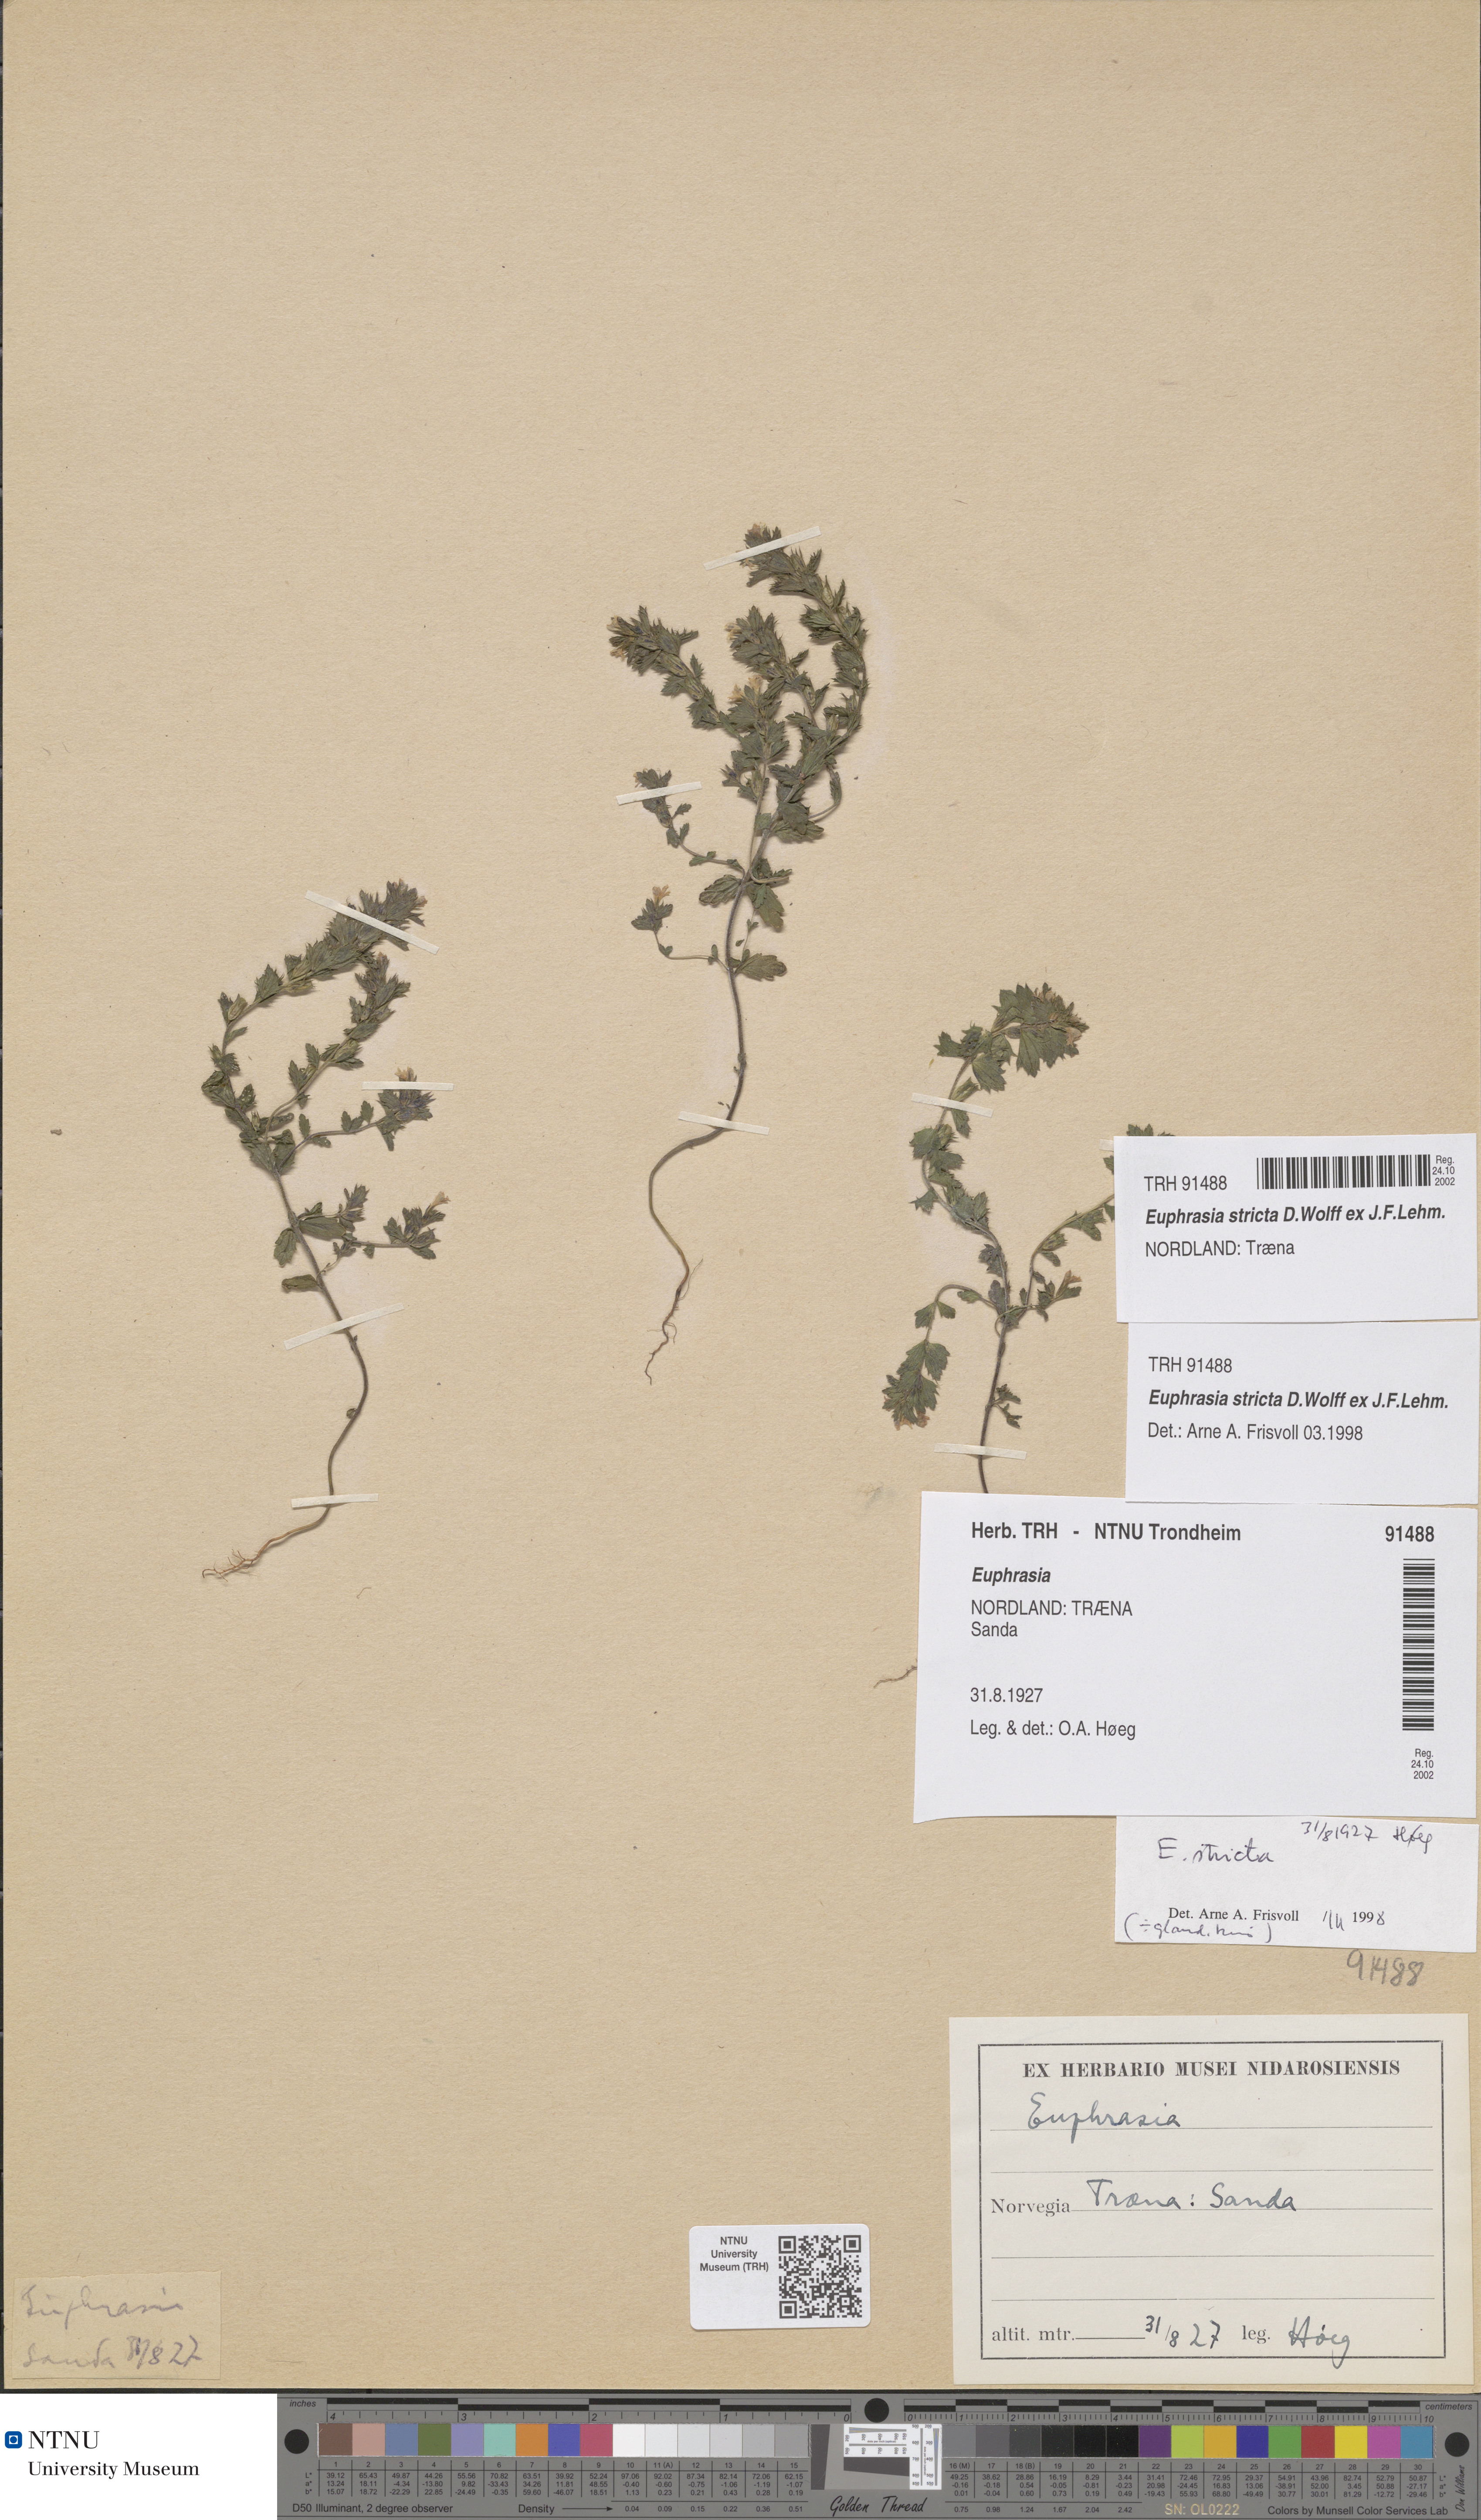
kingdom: Plantae
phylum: Tracheophyta
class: Magnoliopsida
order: Lamiales
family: Orobanchaceae
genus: Euphrasia
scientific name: Euphrasia stricta
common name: Drug eyebright
